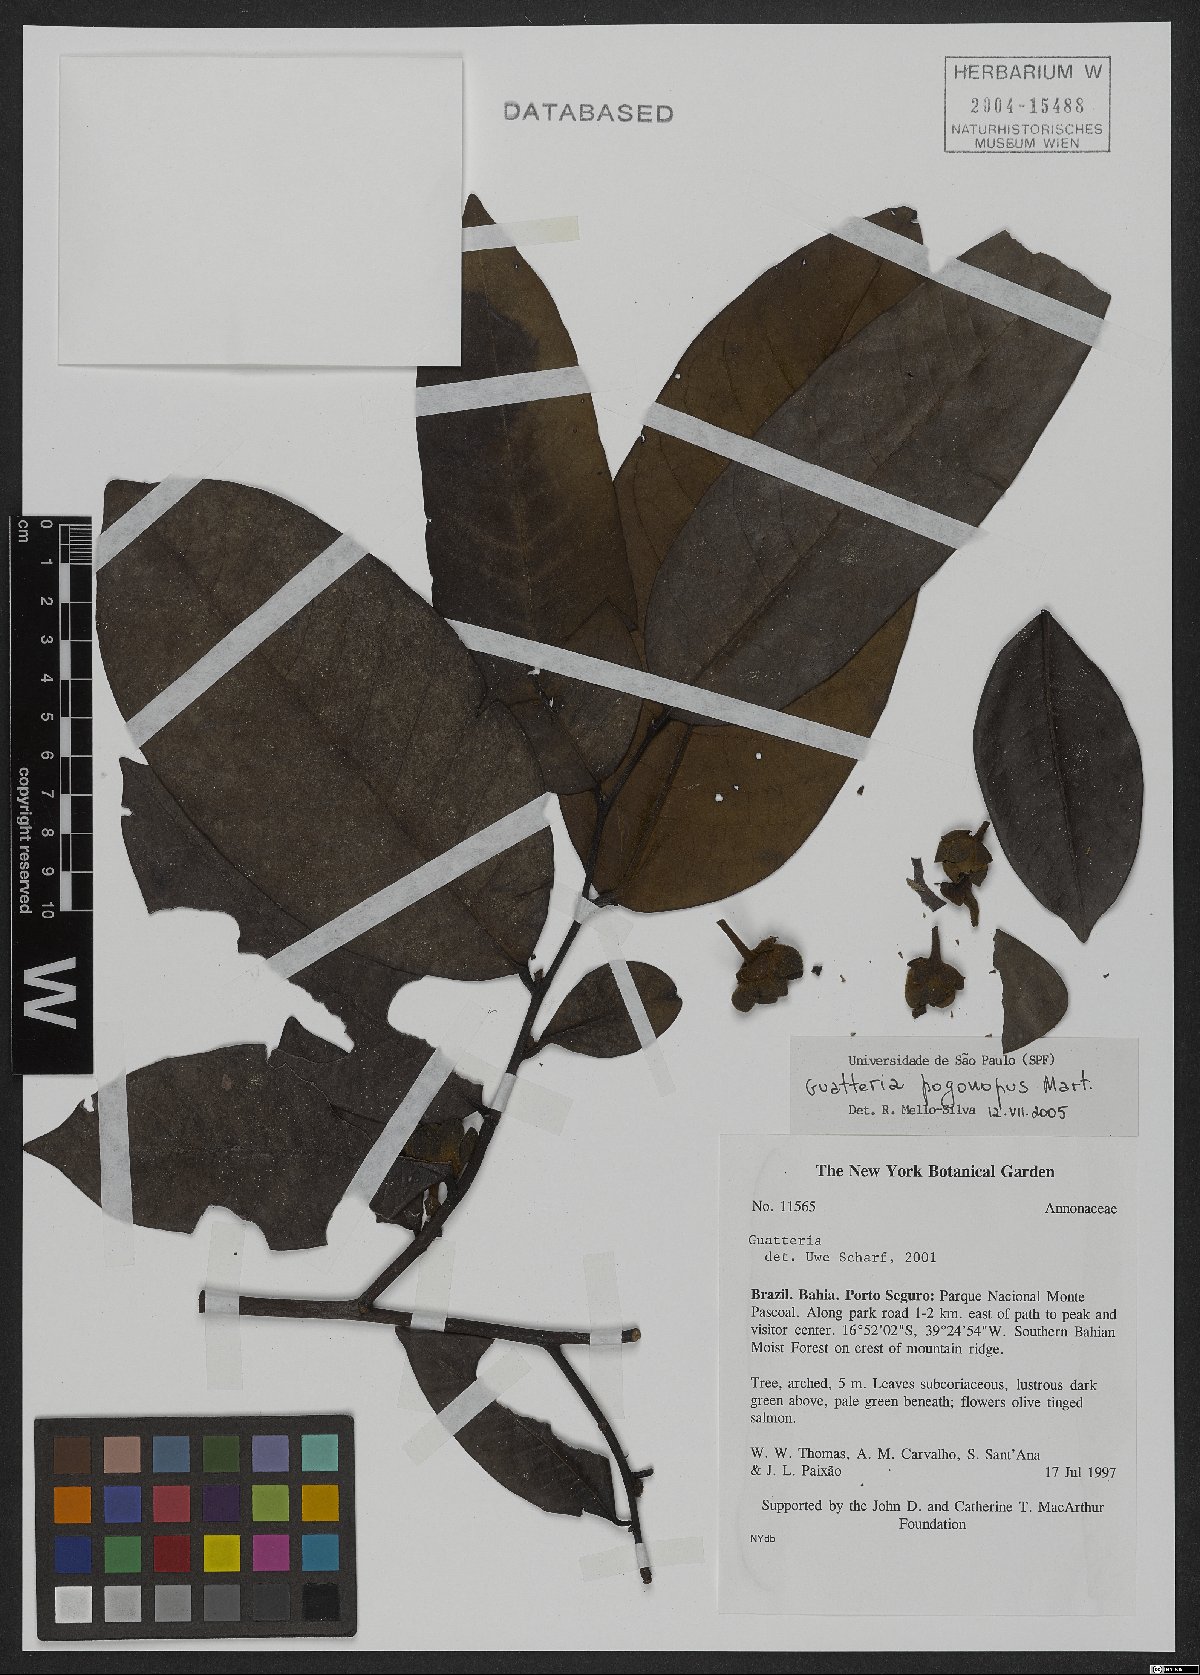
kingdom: Plantae
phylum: Tracheophyta
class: Magnoliopsida
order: Magnoliales
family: Annonaceae
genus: Guatteria
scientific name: Guatteria pogonopus
